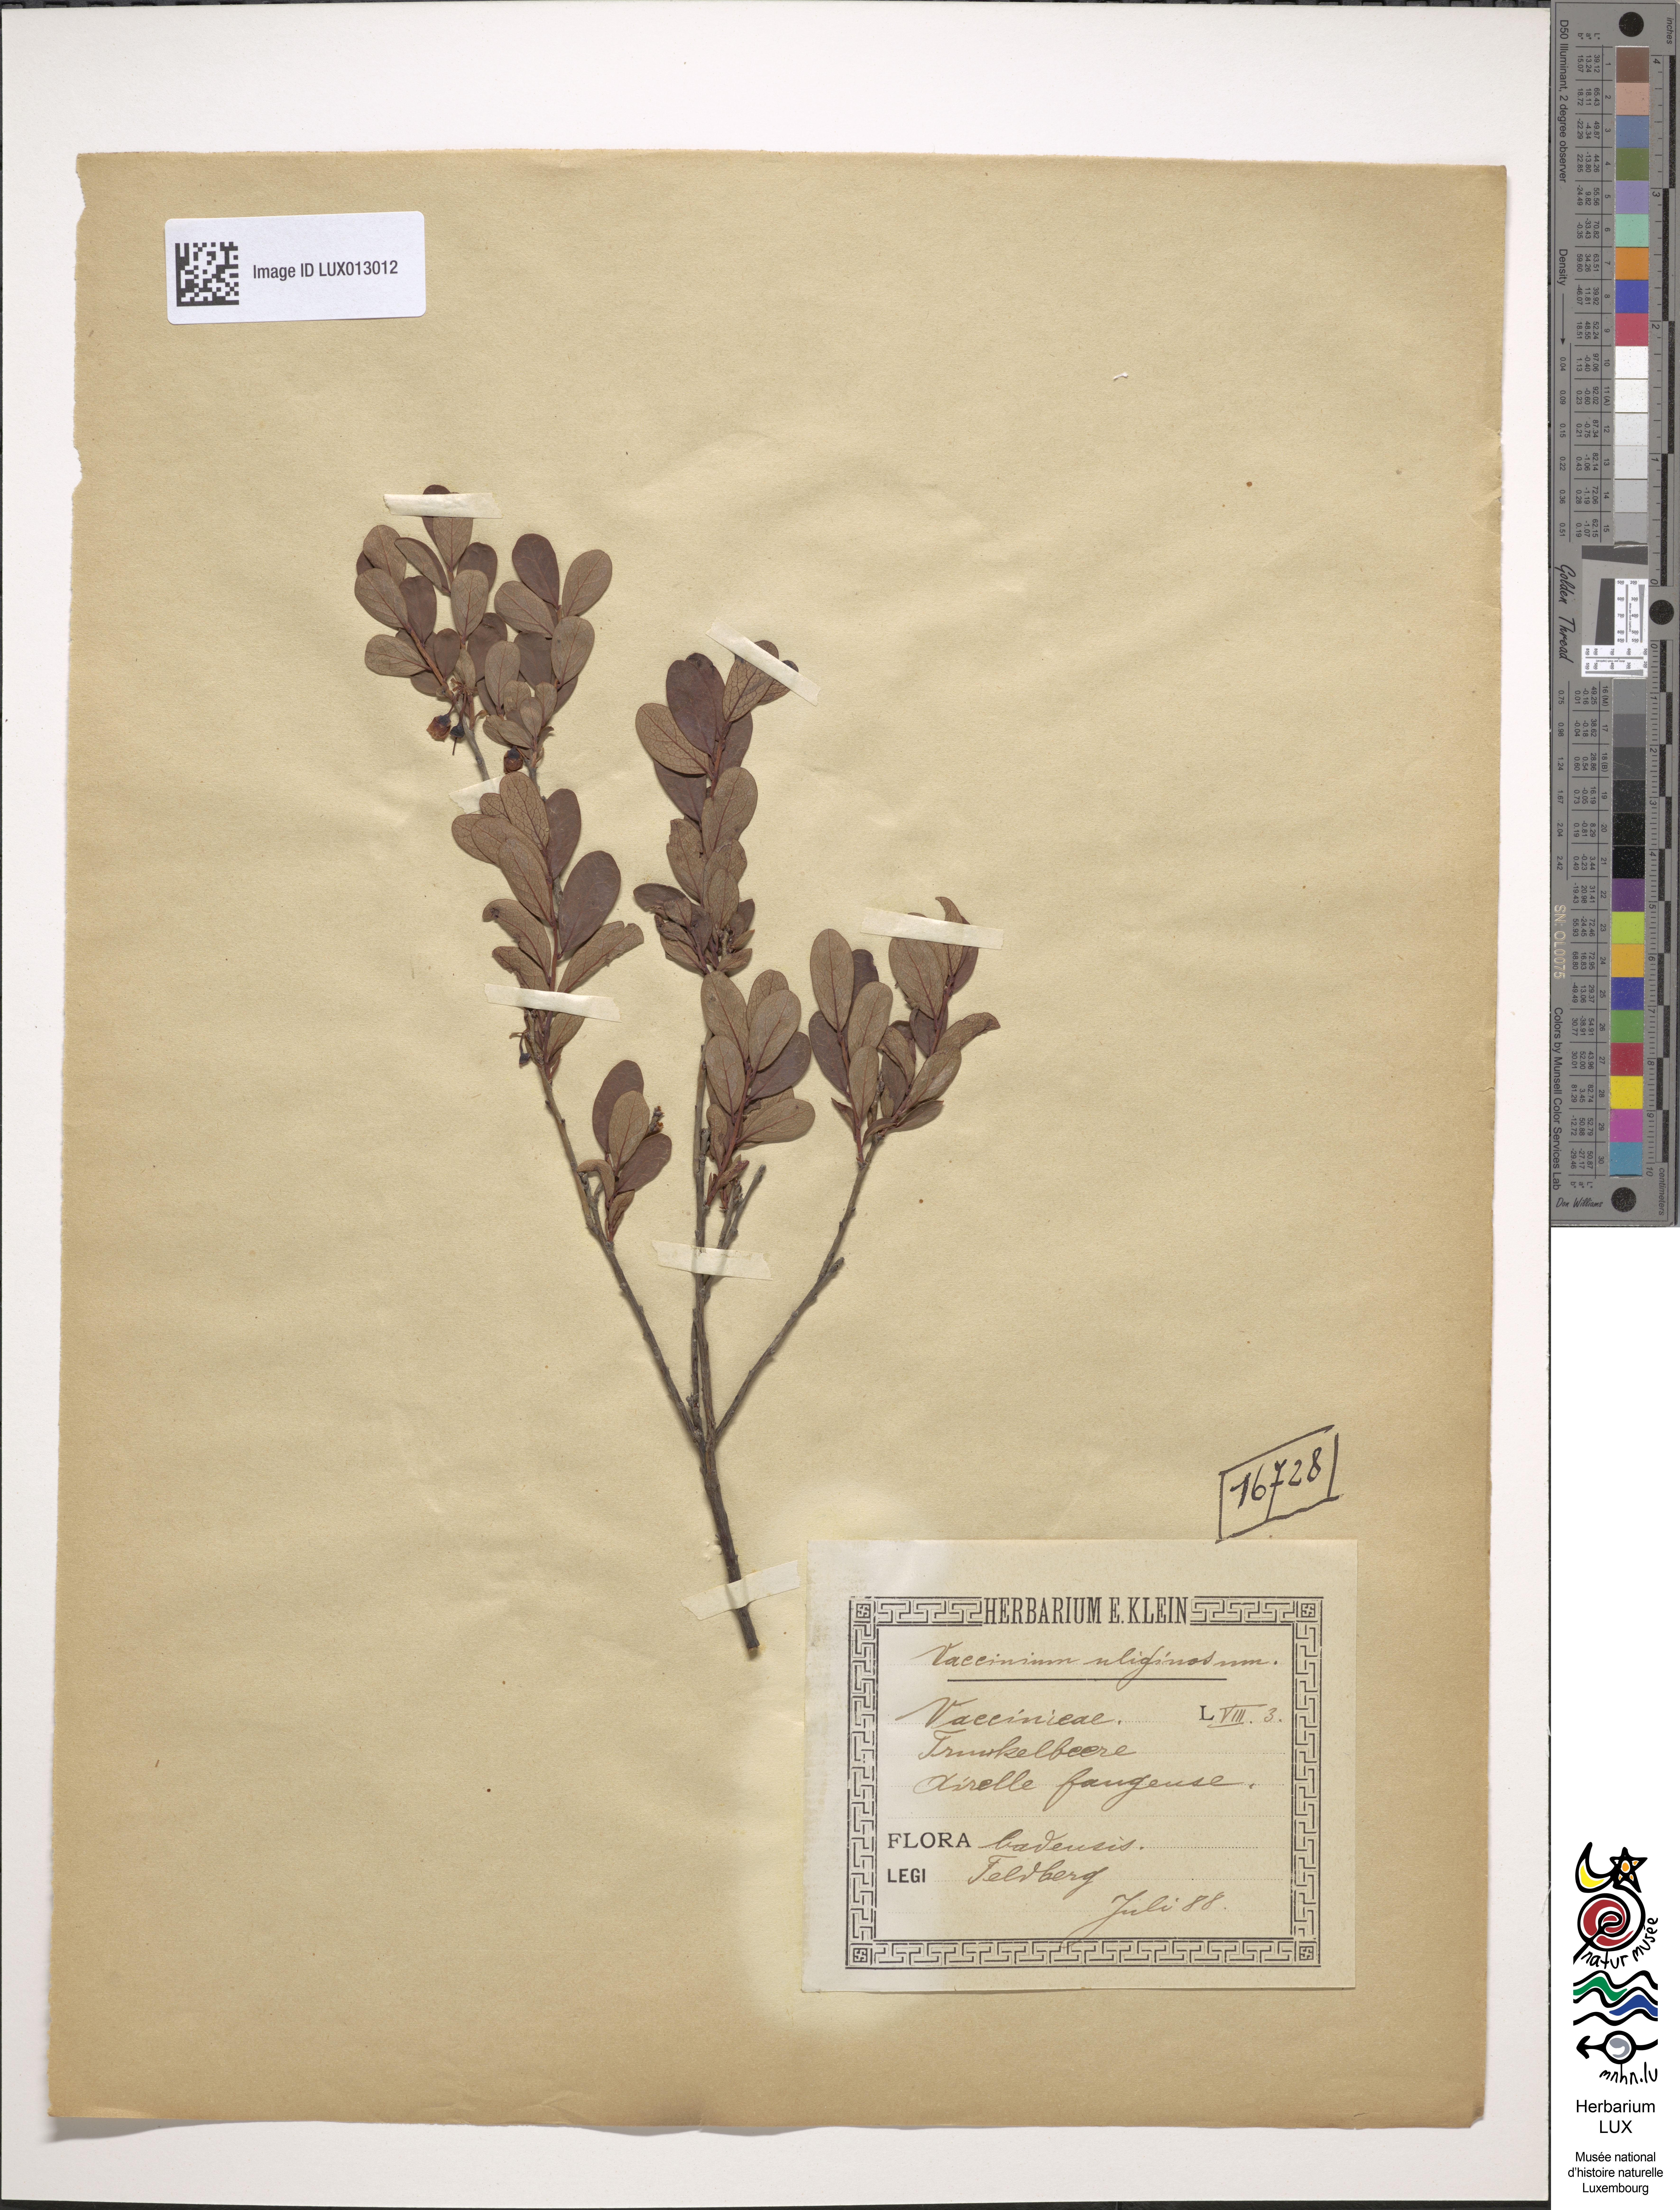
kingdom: Plantae
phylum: Tracheophyta
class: Magnoliopsida
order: Ericales
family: Ericaceae
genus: Vaccinium
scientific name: Vaccinium uliginosum
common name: Bog bilberry
